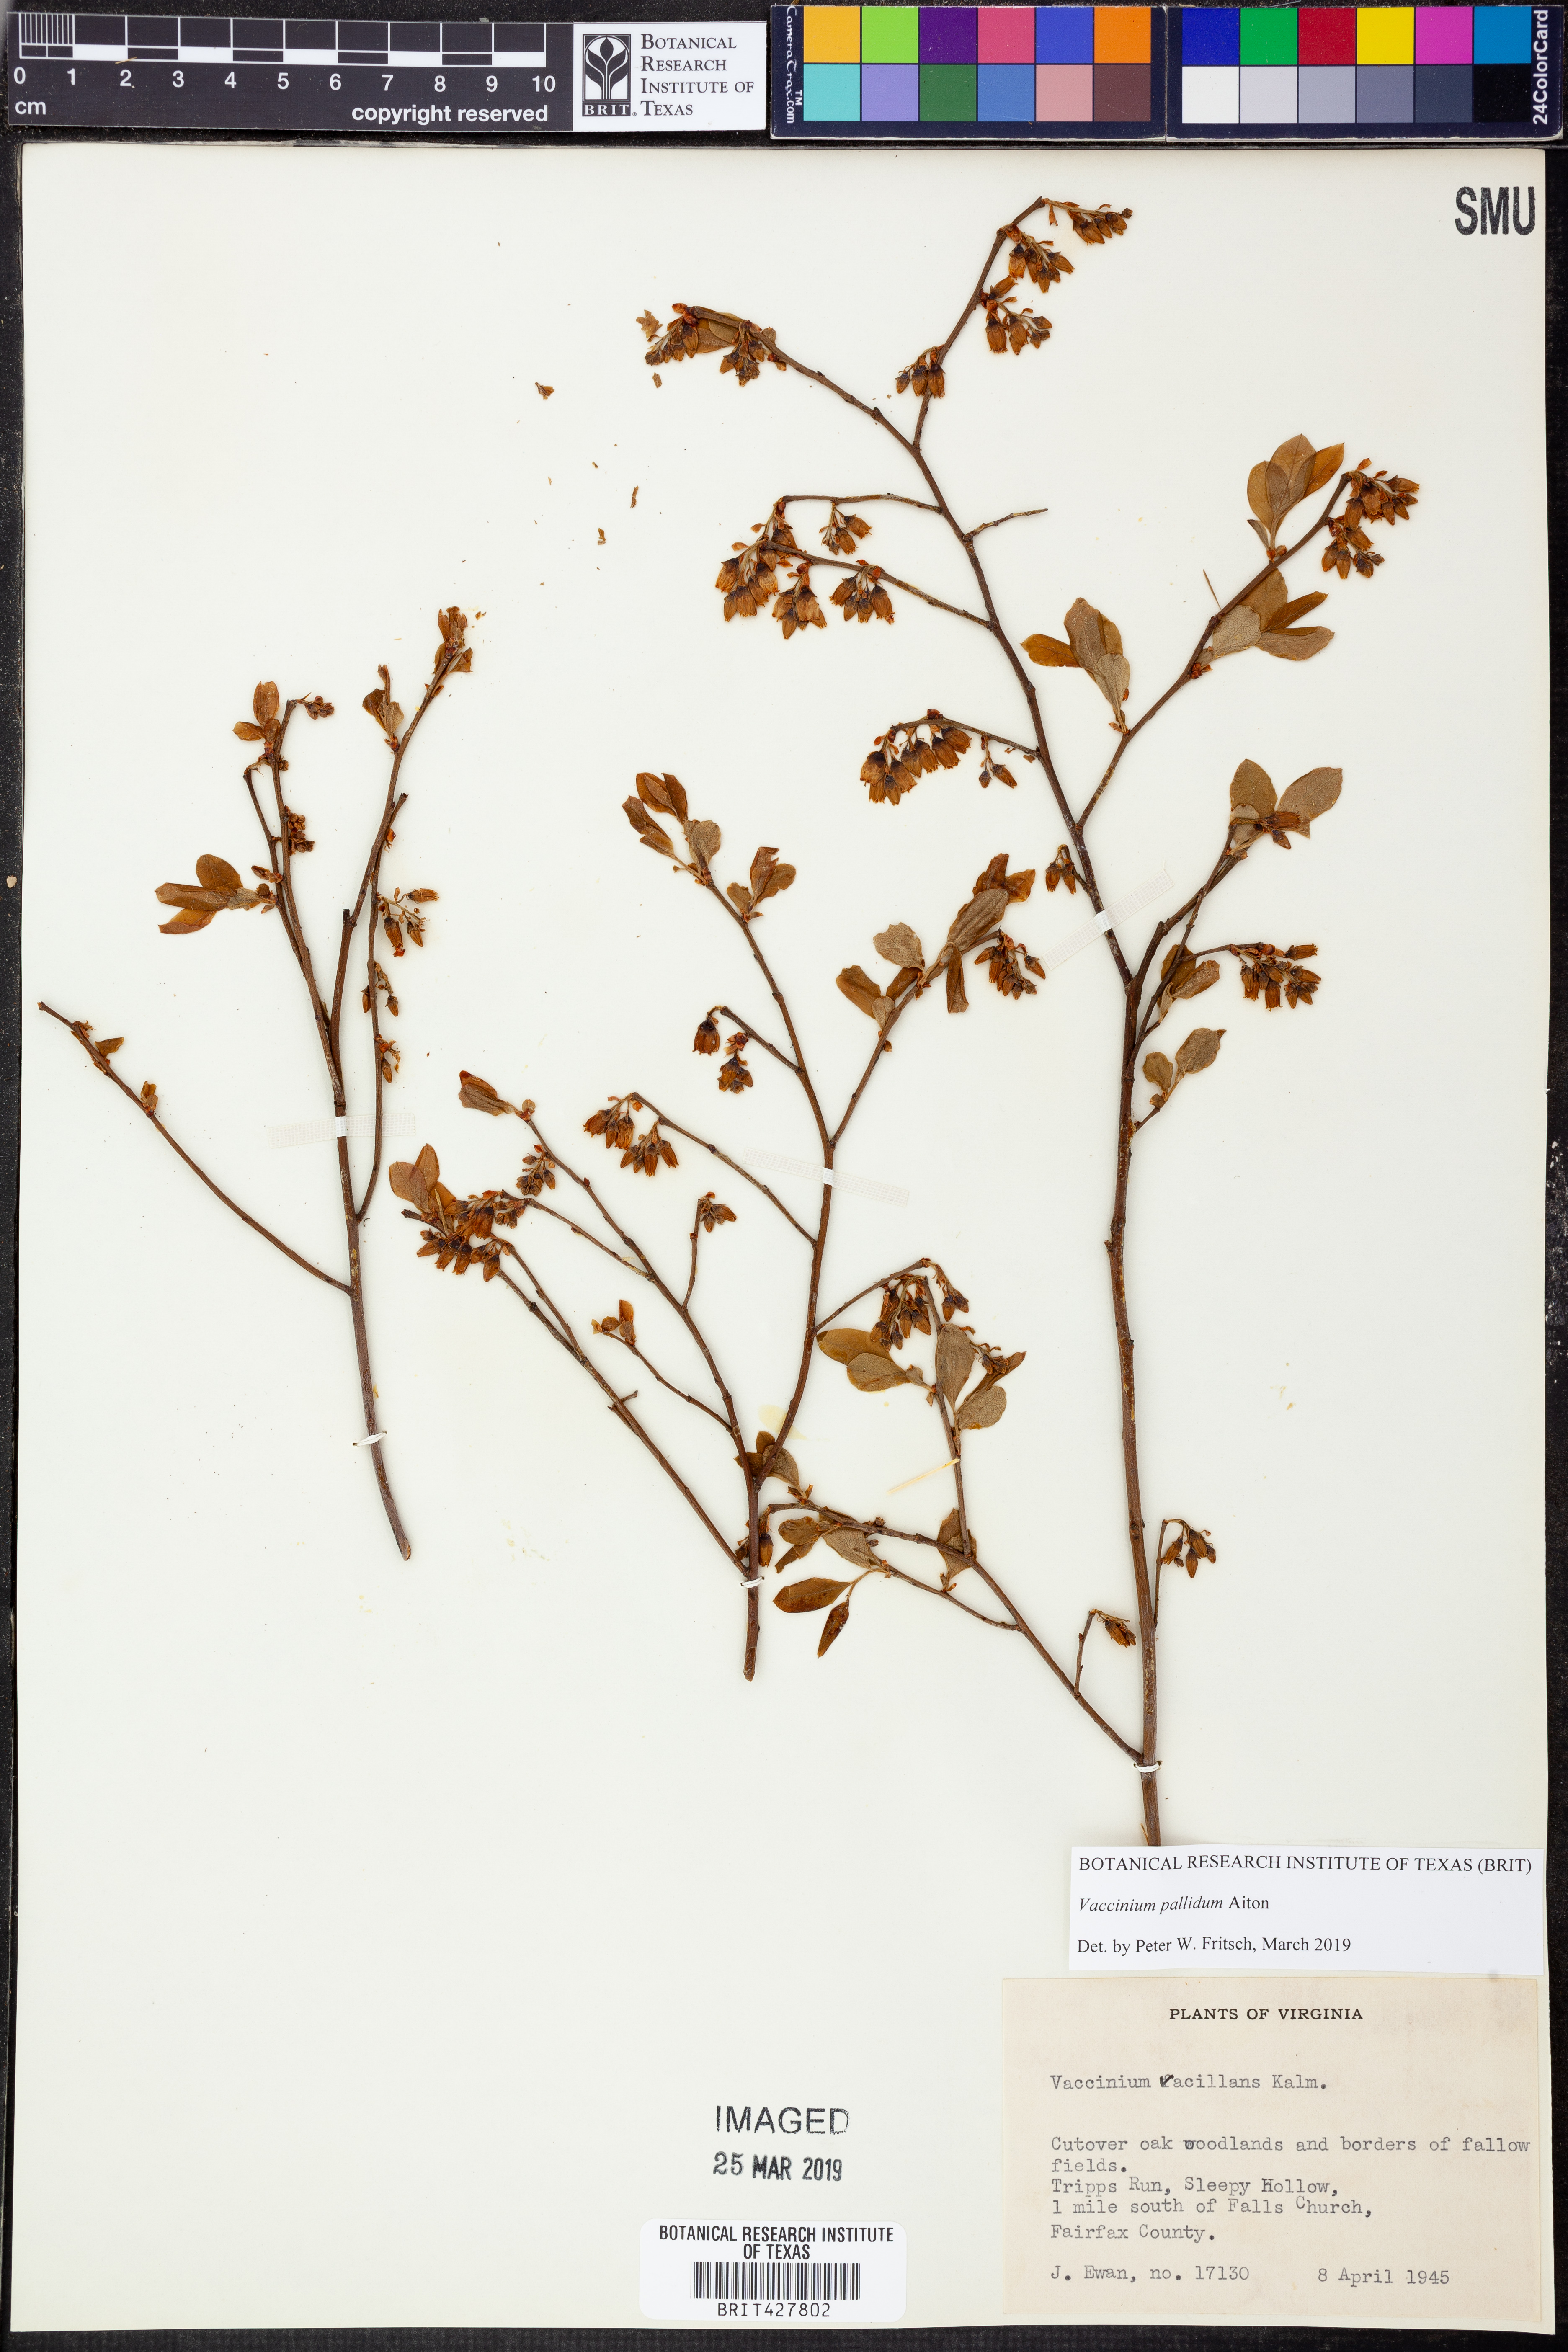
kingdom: Plantae
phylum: Tracheophyta
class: Magnoliopsida
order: Ericales
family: Ericaceae
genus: Vaccinium
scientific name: Vaccinium pallidum
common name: Blue ridge blueberry
